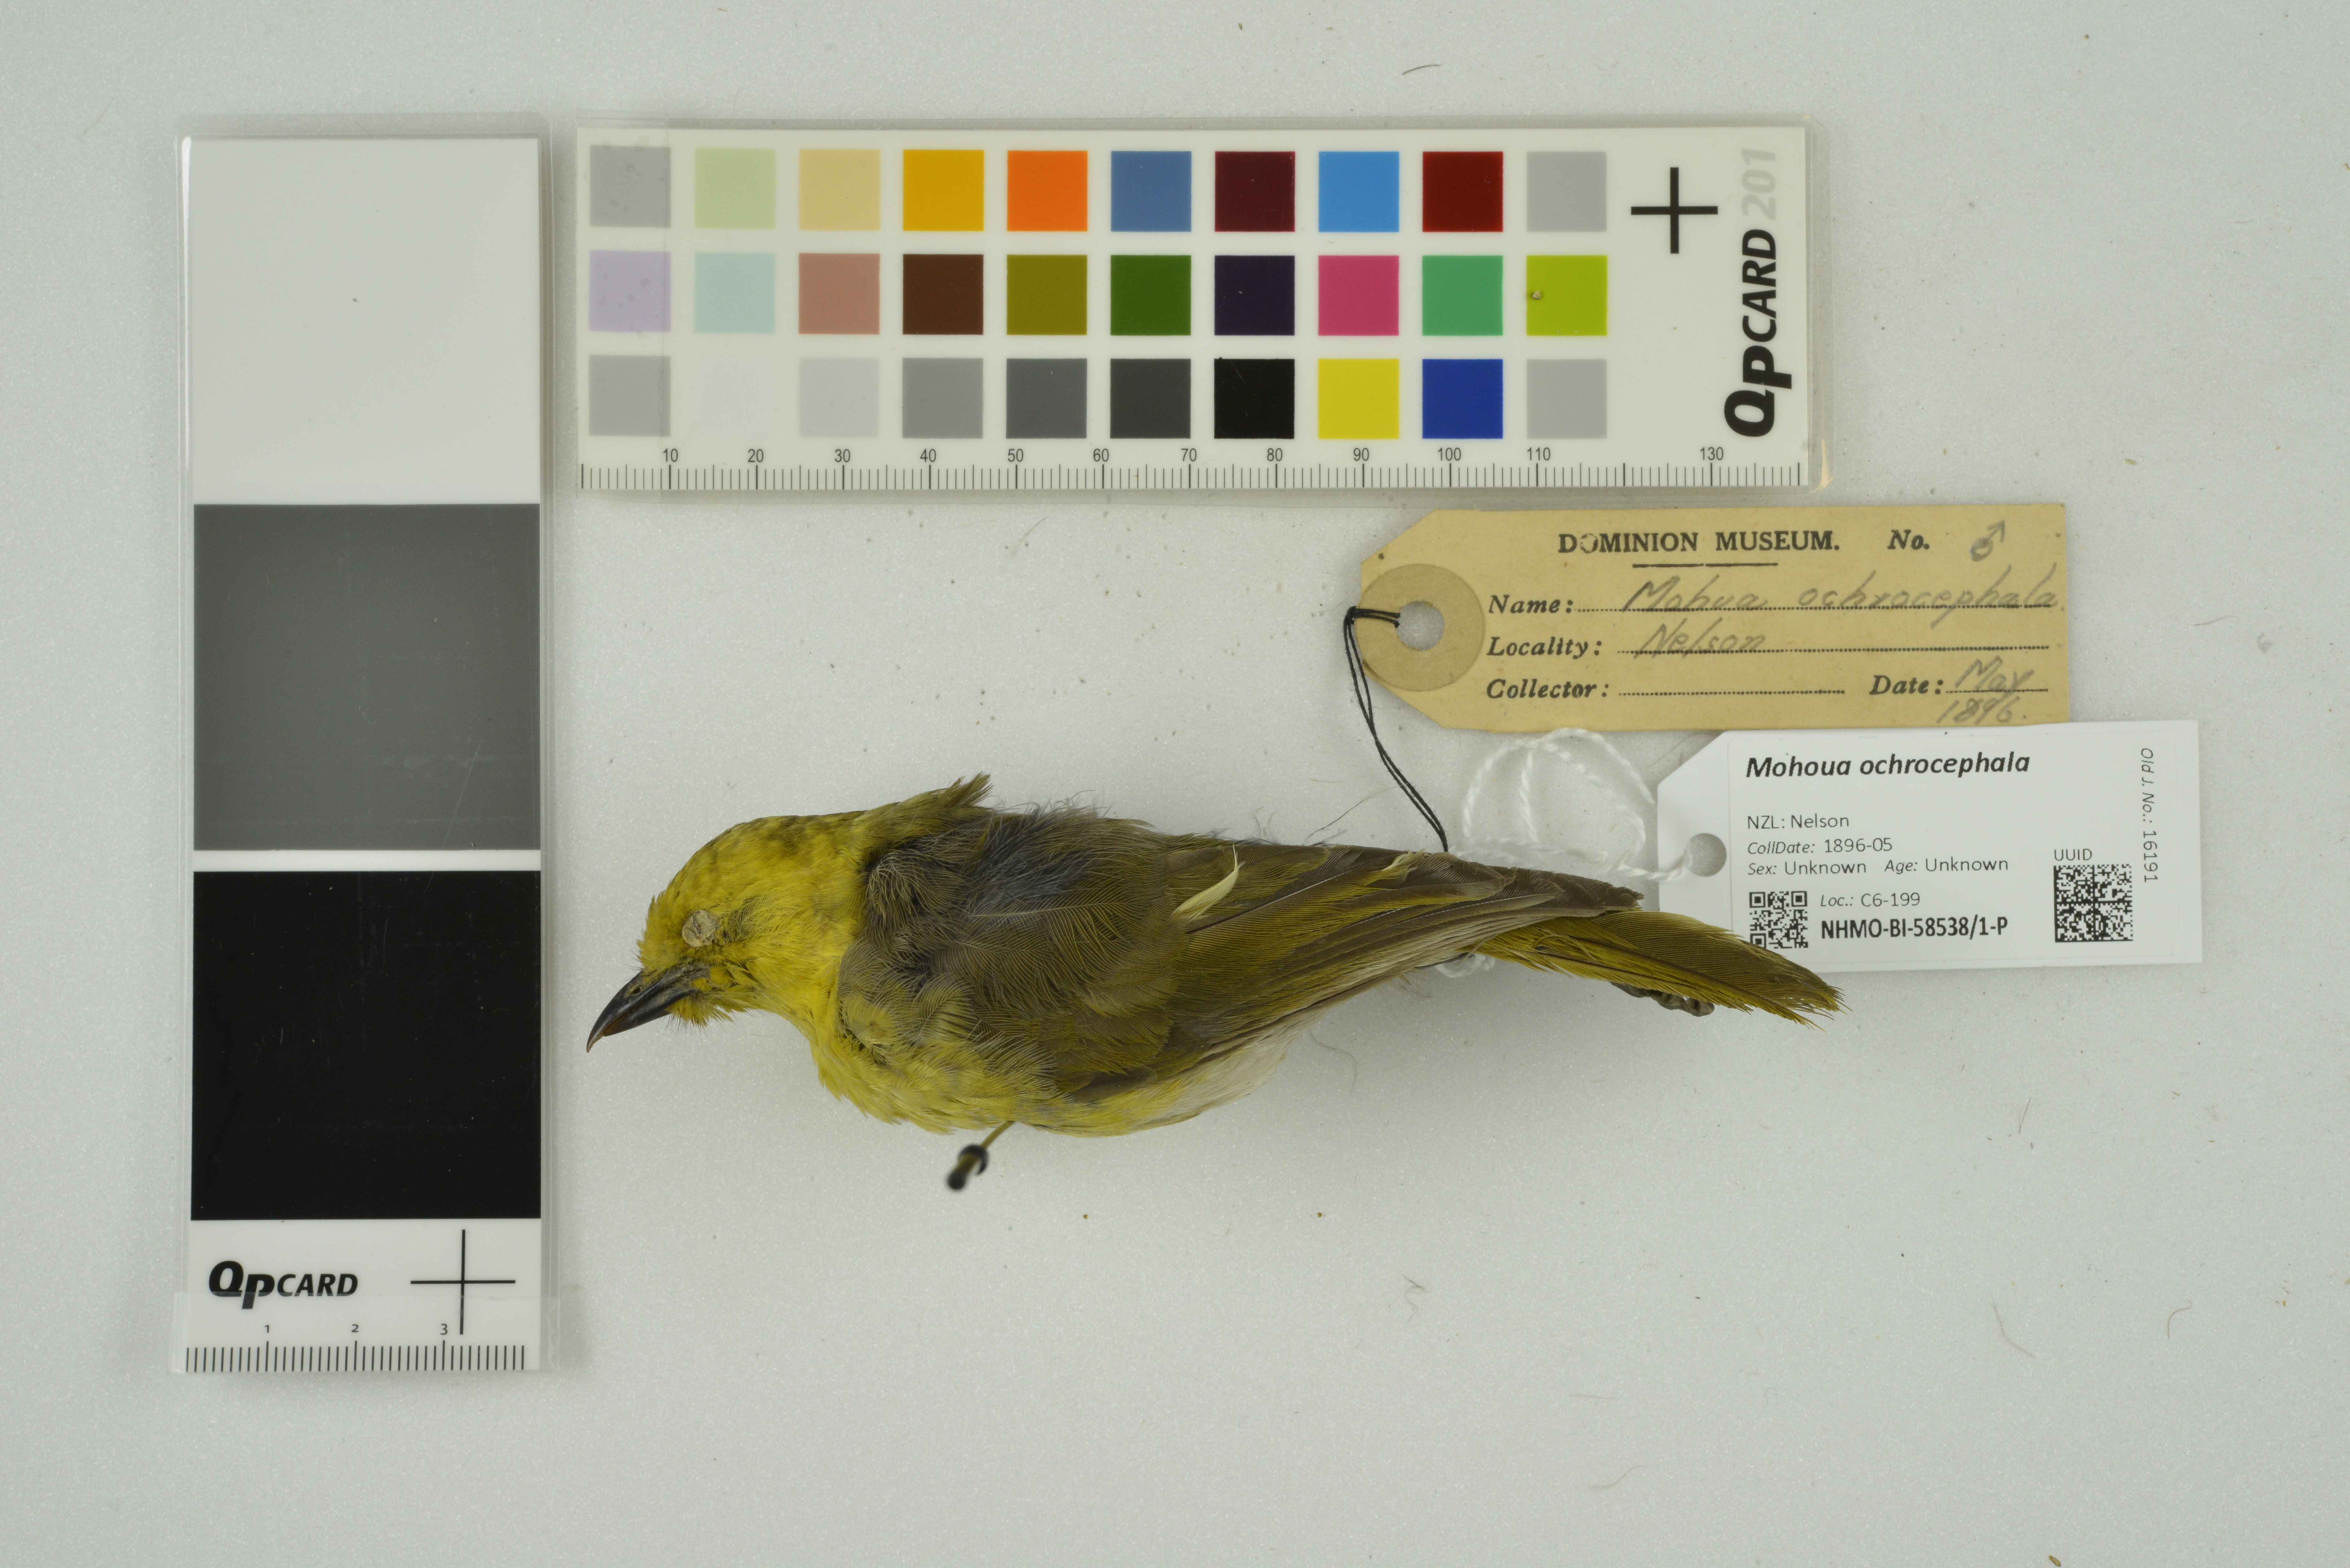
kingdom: Animalia
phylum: Chordata
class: Aves
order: Passeriformes
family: Acanthizidae
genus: Mohoua
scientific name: Mohoua ochrocephala
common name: Yellowhead
